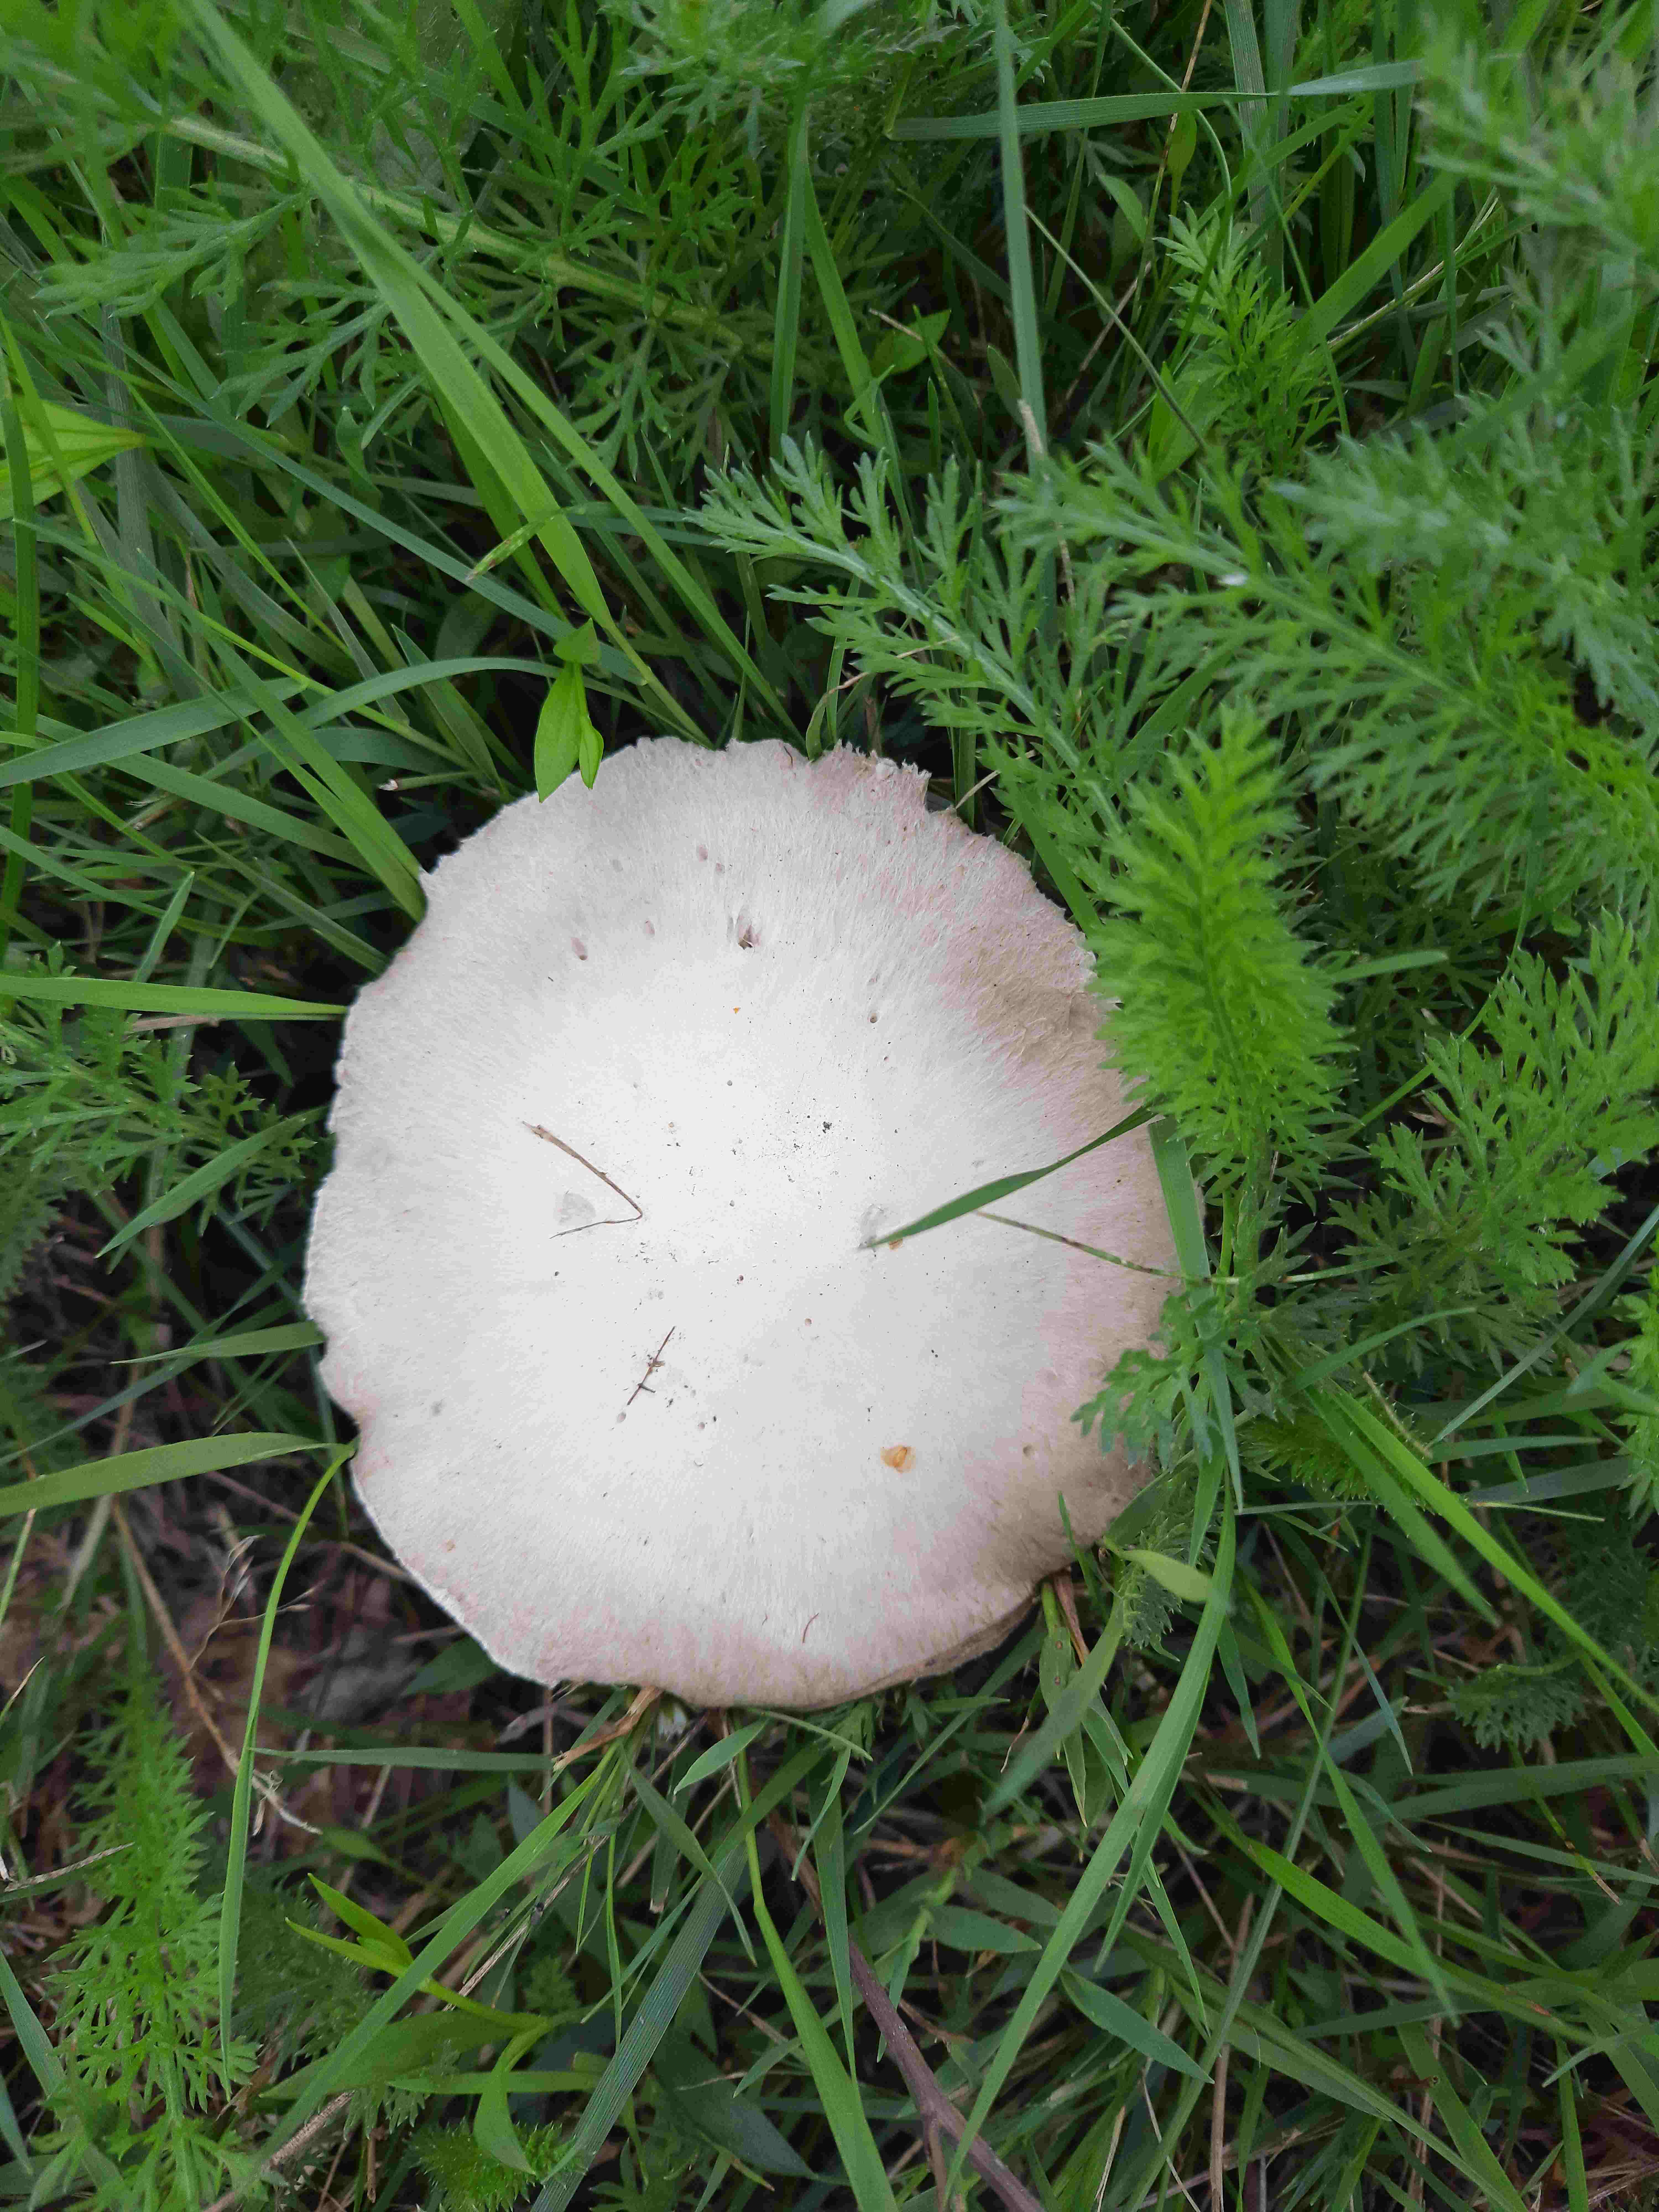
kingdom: Fungi
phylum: Basidiomycota
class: Agaricomycetes
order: Agaricales
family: Agaricaceae
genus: Agaricus
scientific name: Agaricus
